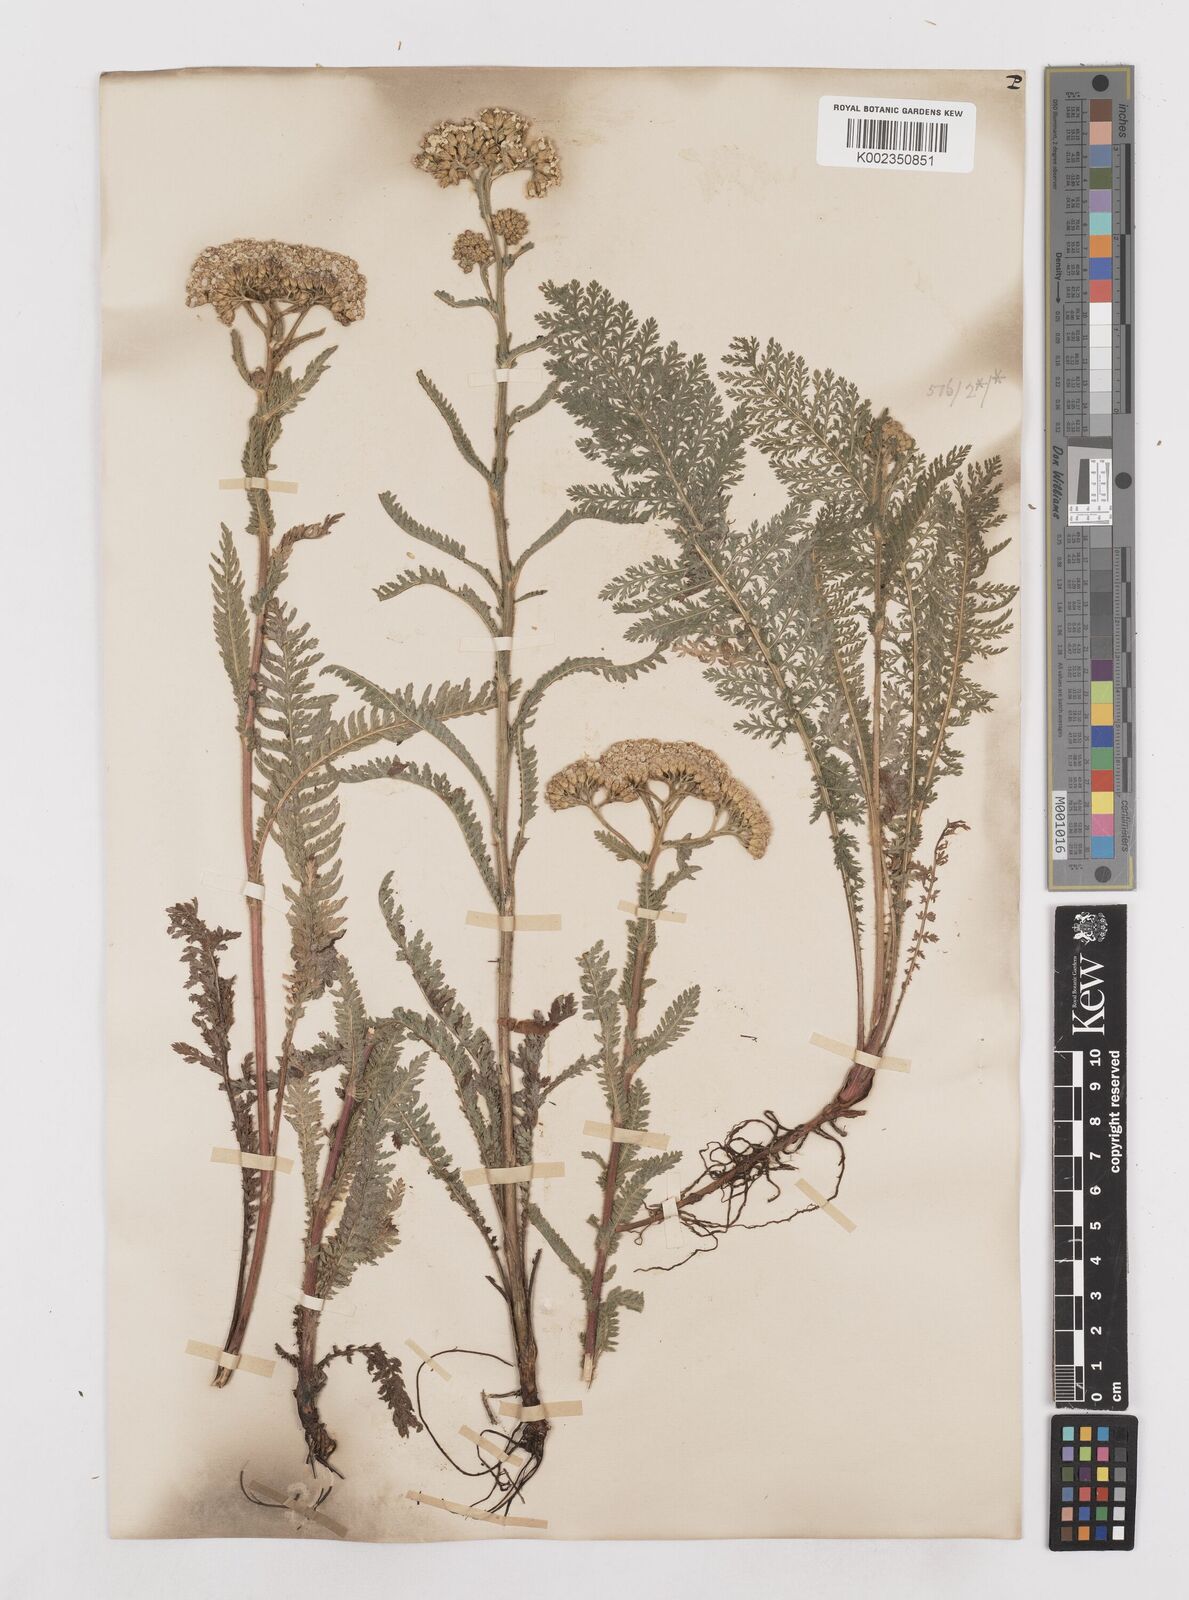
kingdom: Plantae
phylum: Tracheophyta
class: Magnoliopsida
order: Asterales
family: Asteraceae
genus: Achillea
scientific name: Achillea distans
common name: Tall yarrow
